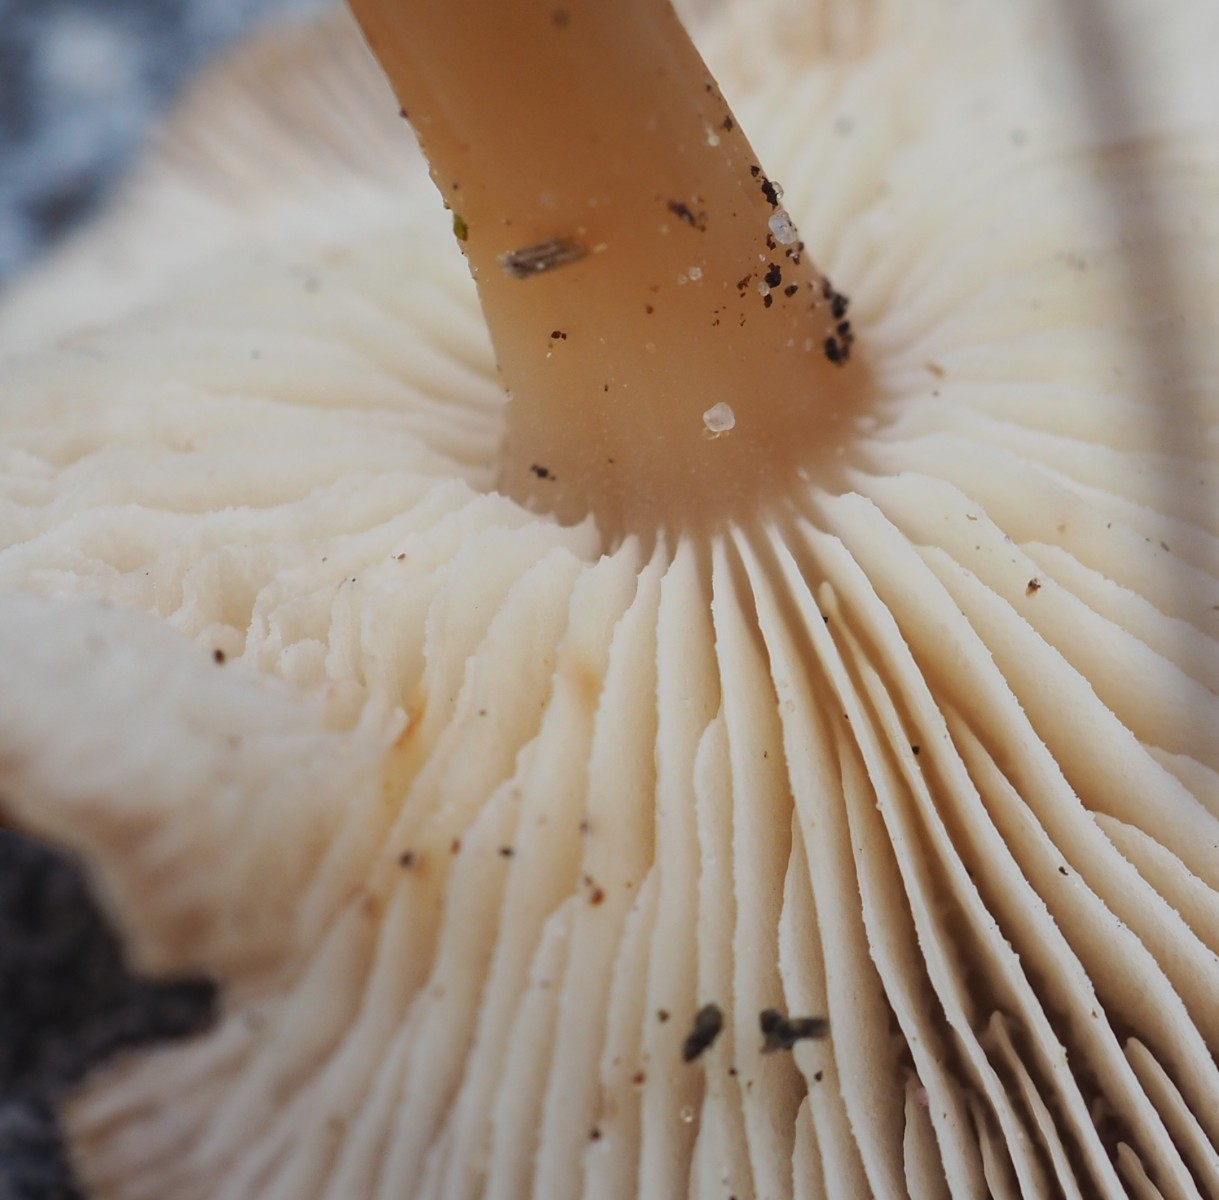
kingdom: Fungi
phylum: Basidiomycota
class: Agaricomycetes
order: Agaricales
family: Omphalotaceae
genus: Gymnopus
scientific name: Gymnopus
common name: fladhat
